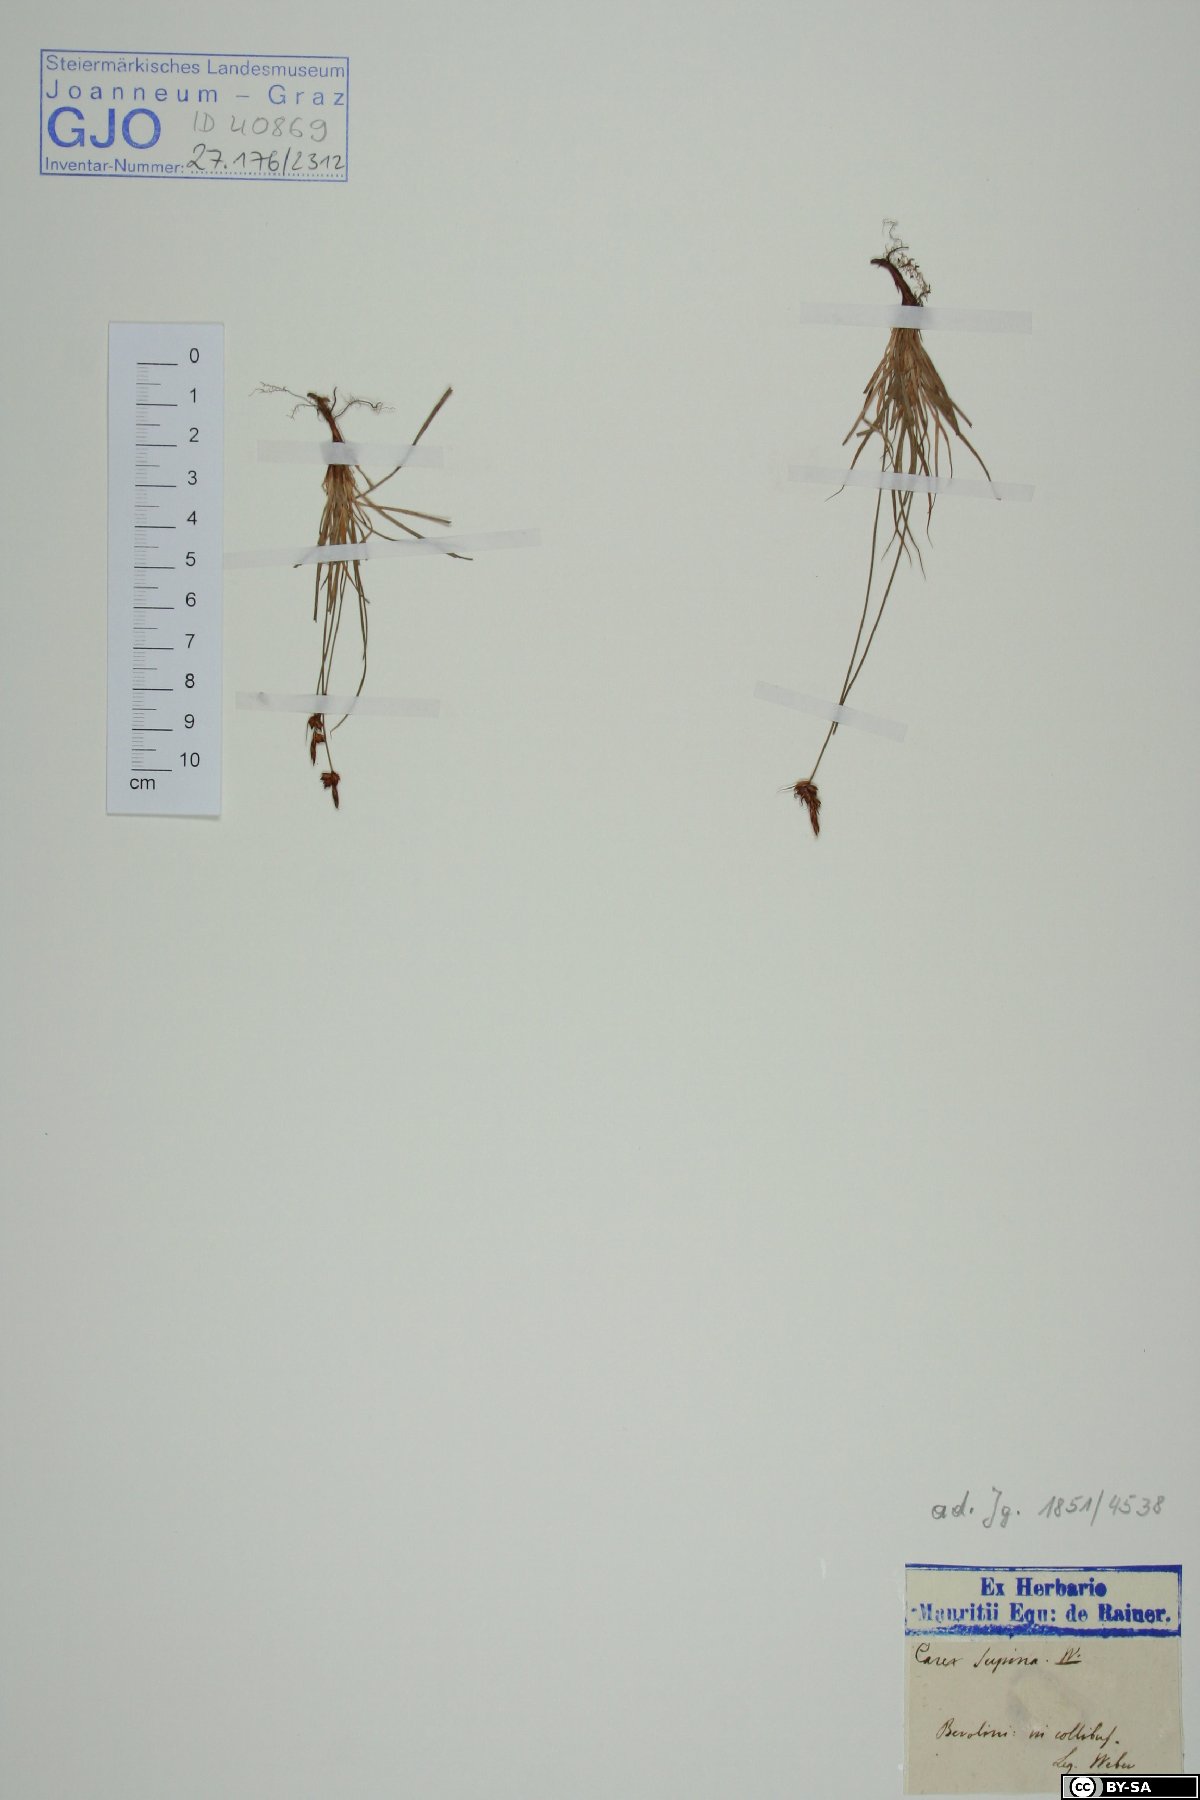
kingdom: Plantae
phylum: Tracheophyta
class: Liliopsida
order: Poales
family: Cyperaceae
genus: Carex
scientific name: Carex supina
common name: Lying-back sedge
